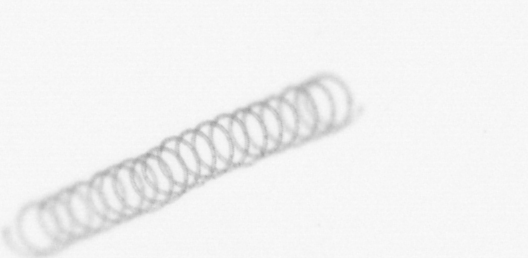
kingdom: Chromista
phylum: Ochrophyta
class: Bacillariophyceae
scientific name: Bacillariophyceae
